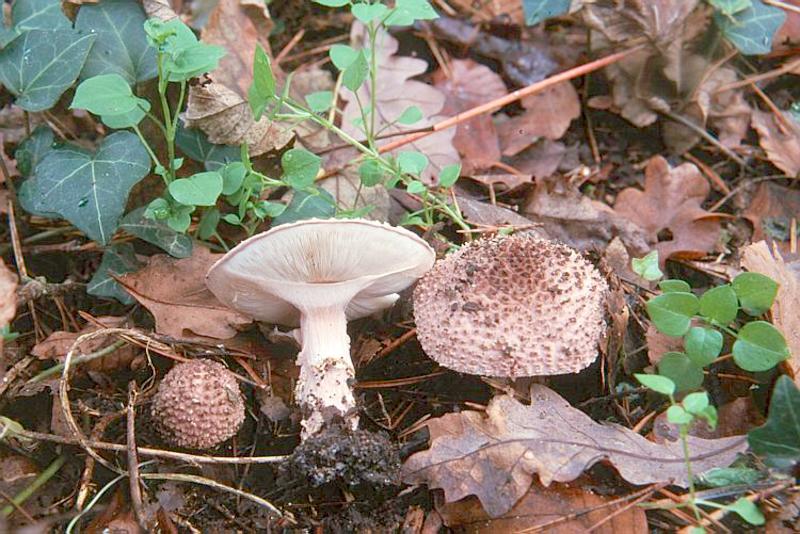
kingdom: Fungi
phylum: Basidiomycota
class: Agaricomycetes
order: Agaricales
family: Agaricaceae
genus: Echinoderma
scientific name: Echinoderma asperum
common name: Freckled dapperling
